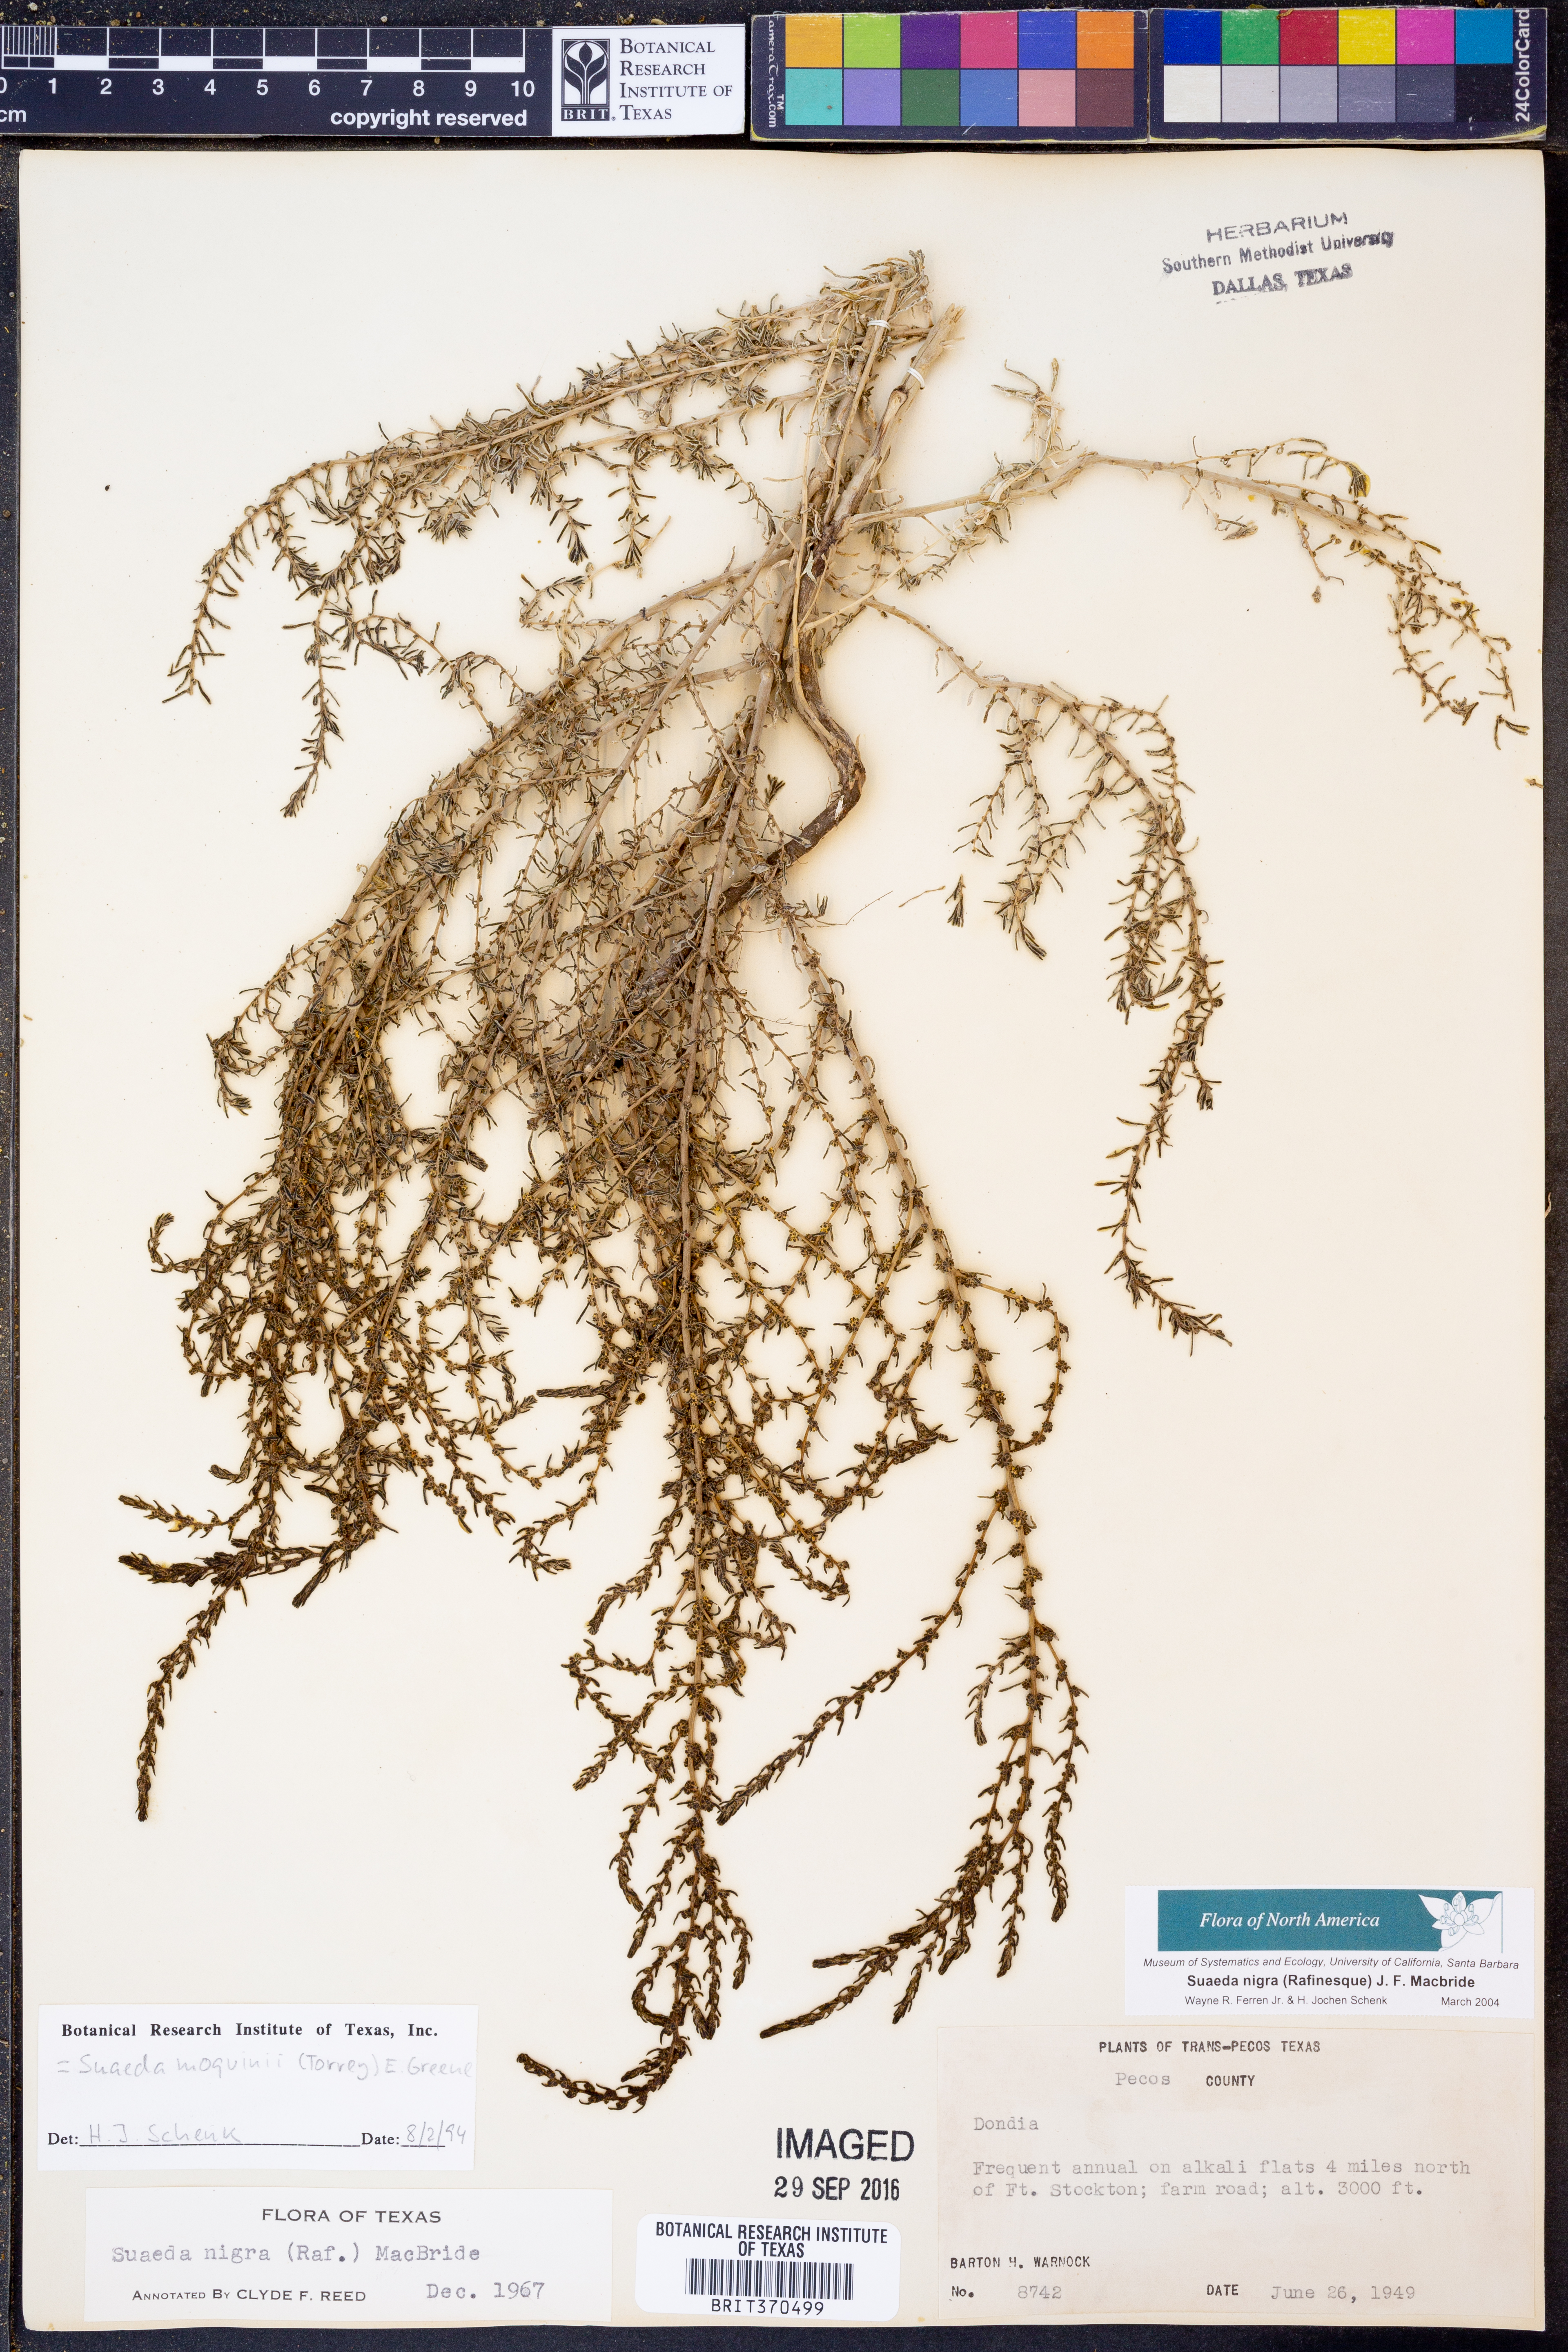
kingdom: Plantae
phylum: Tracheophyta
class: Magnoliopsida
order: Caryophyllales
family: Amaranthaceae
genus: Suaeda
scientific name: Suaeda nigra
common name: Bush seepweed
